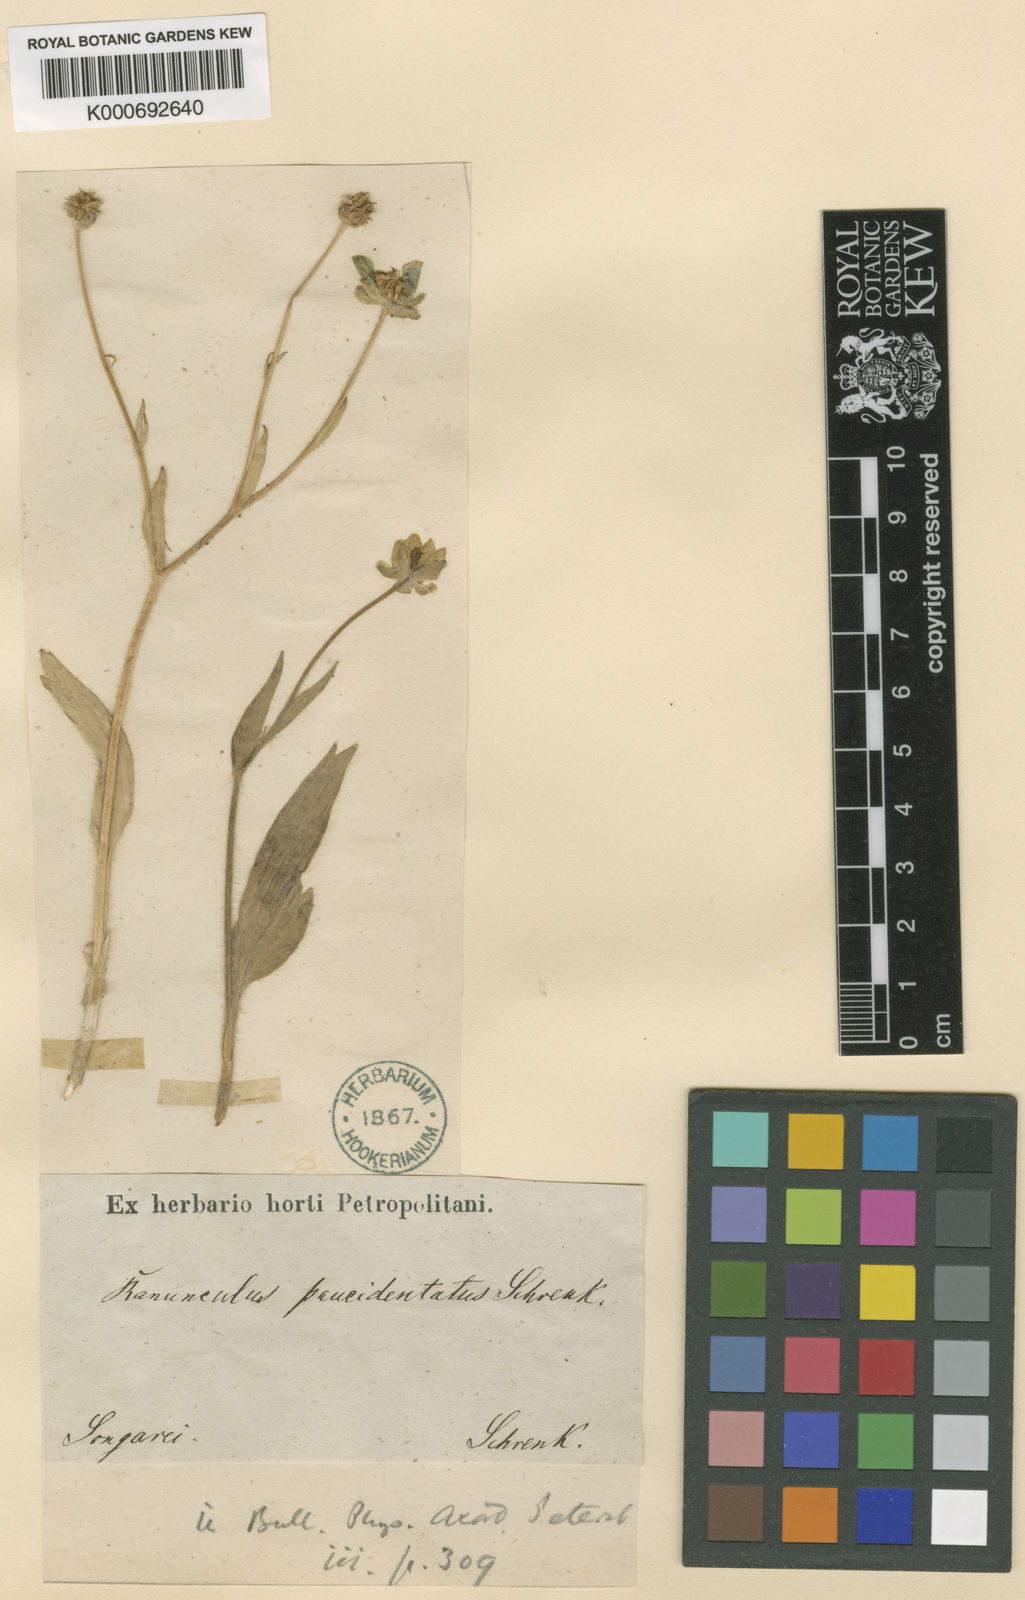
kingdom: Plantae
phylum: Tracheophyta
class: Magnoliopsida
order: Ranunculales
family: Ranunculaceae
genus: Ranunculus
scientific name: Ranunculus paucidentatus
